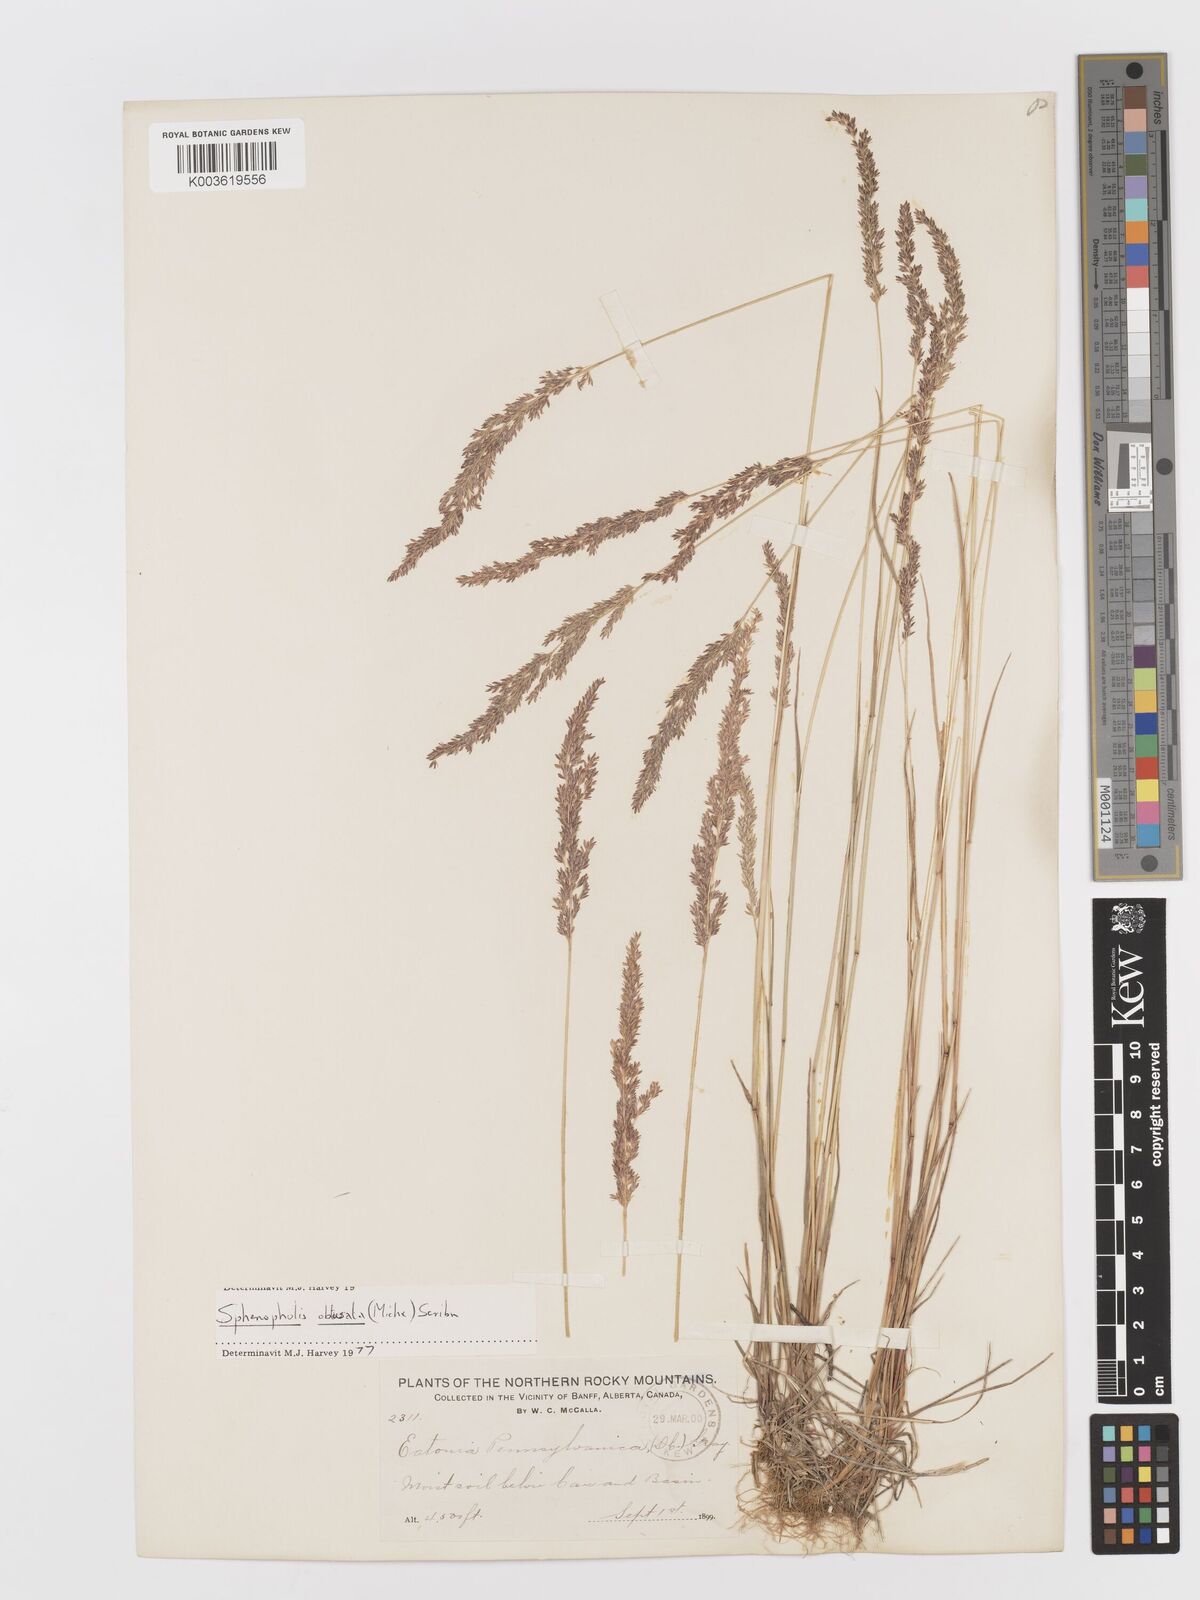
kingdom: Plantae
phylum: Tracheophyta
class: Liliopsida
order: Poales
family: Poaceae
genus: Sphenopholis
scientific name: Sphenopholis obtusata
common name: Prairie grass
